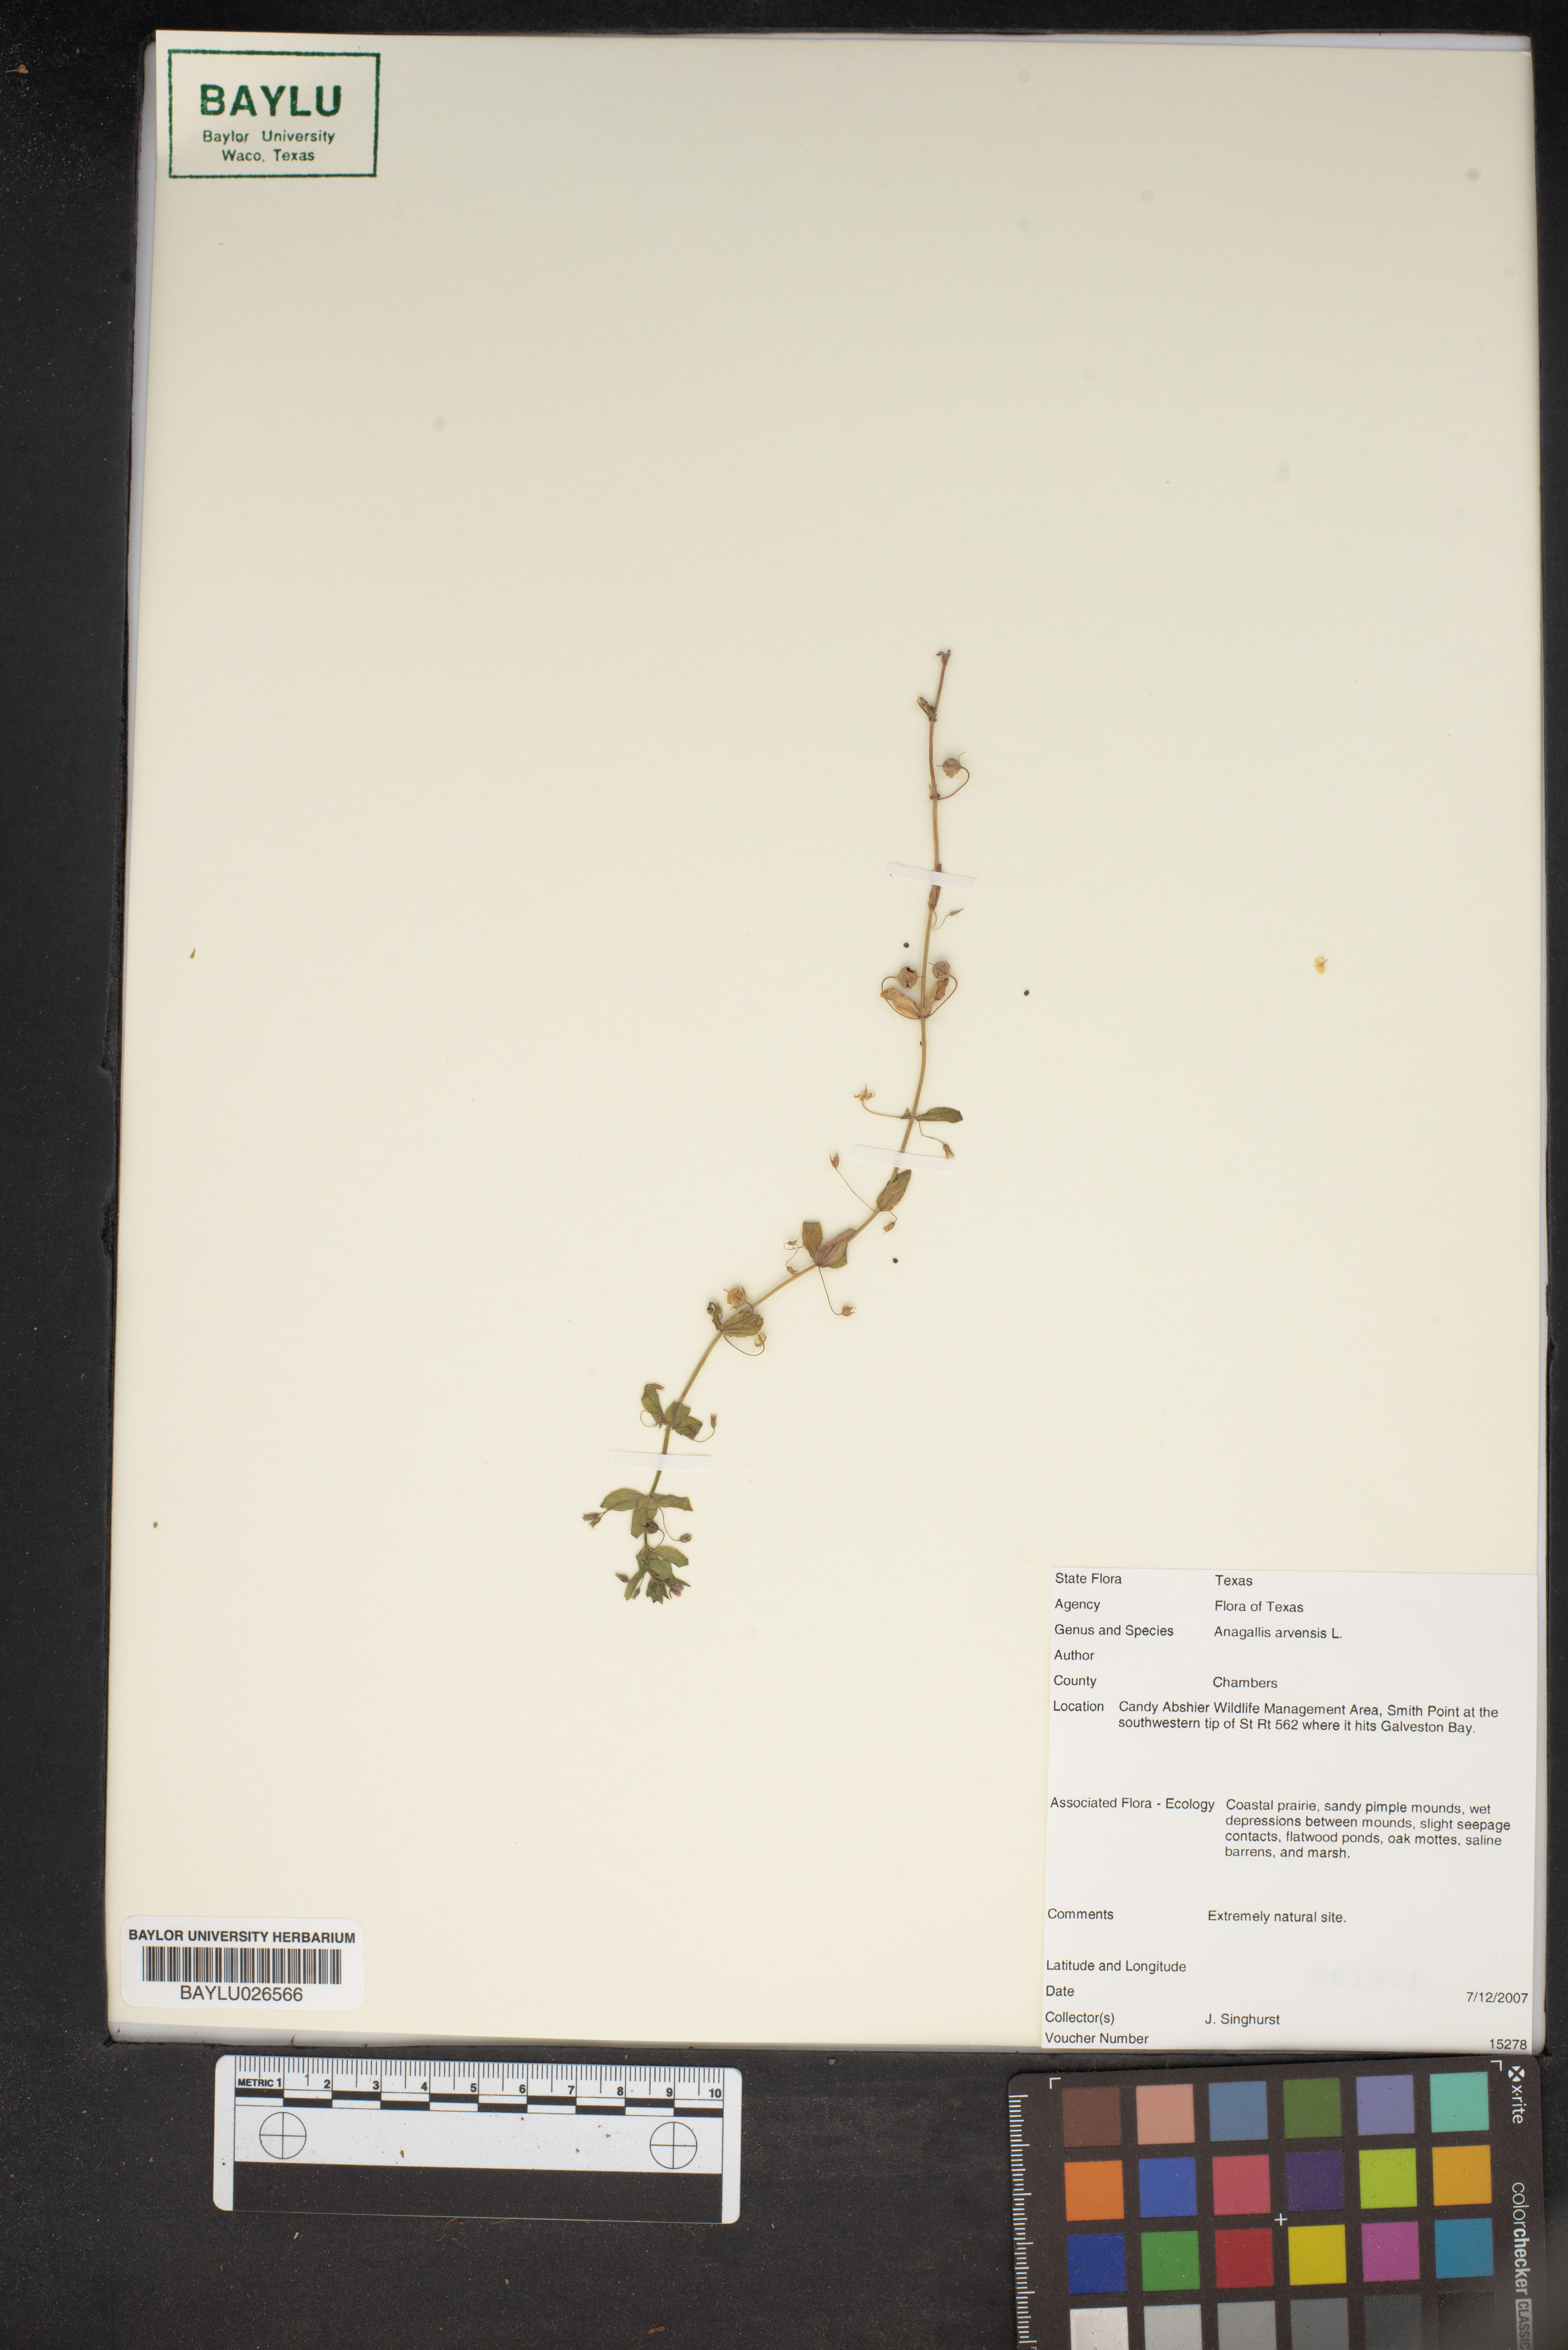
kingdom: Plantae
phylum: Tracheophyta
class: Magnoliopsida
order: Ericales
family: Primulaceae
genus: Lysimachia
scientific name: Lysimachia arvensis
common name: Scarlet pimpernel
